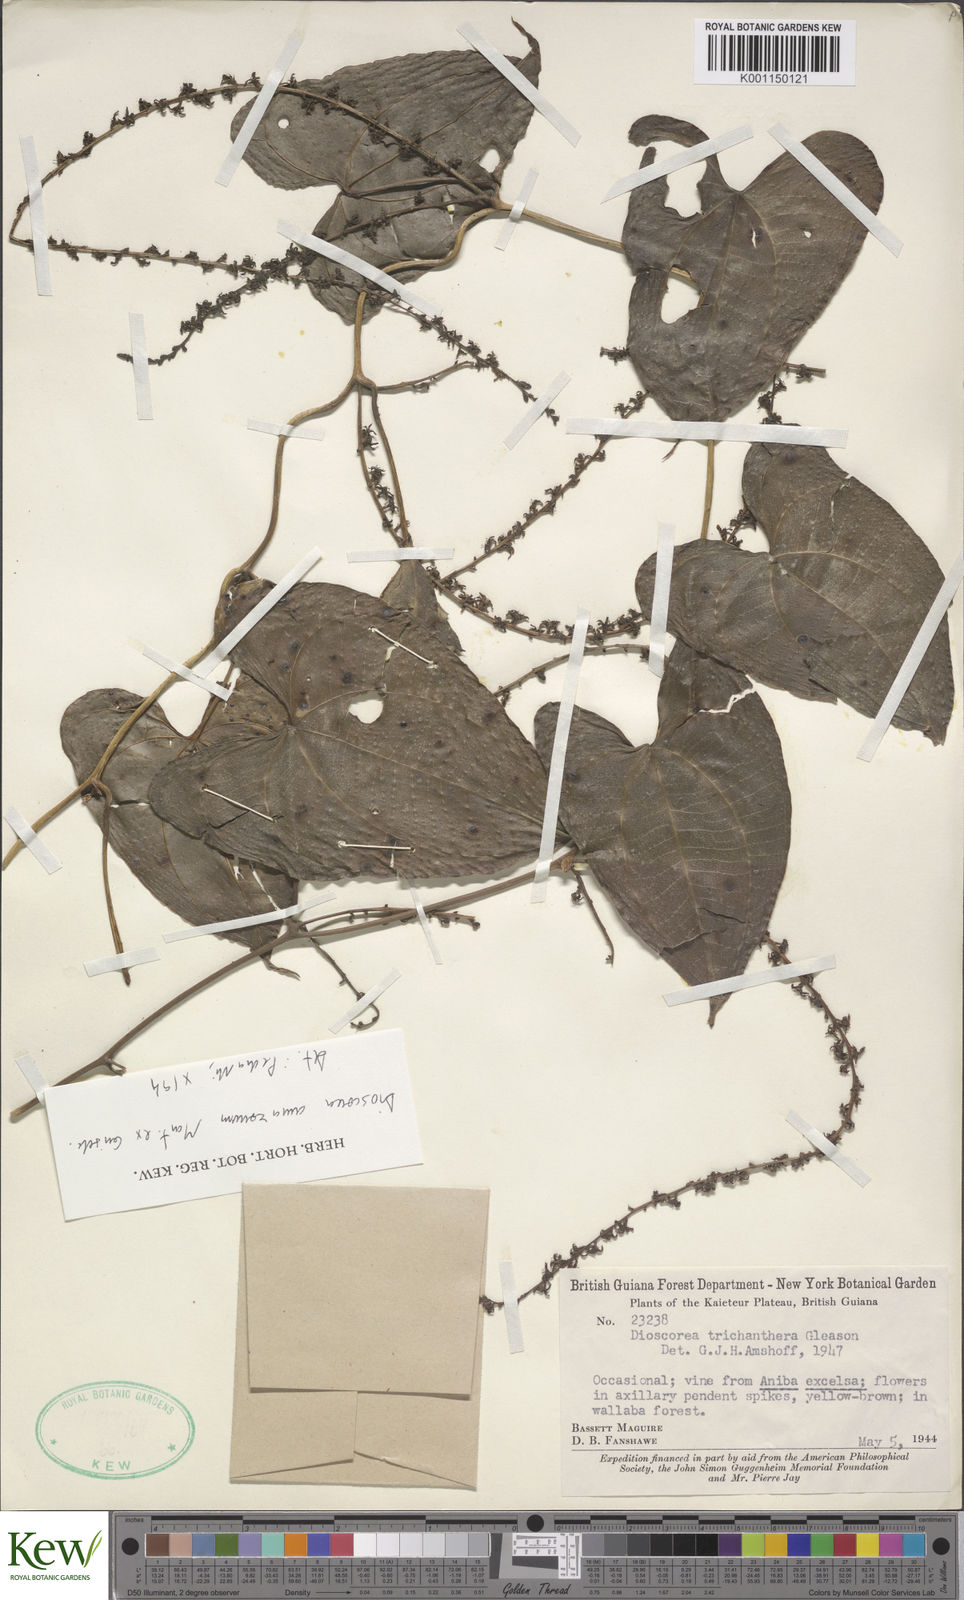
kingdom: Plantae
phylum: Tracheophyta
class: Liliopsida
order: Dioscoreales
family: Dioscoreaceae
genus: Dioscorea
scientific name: Dioscorea trichanthera
